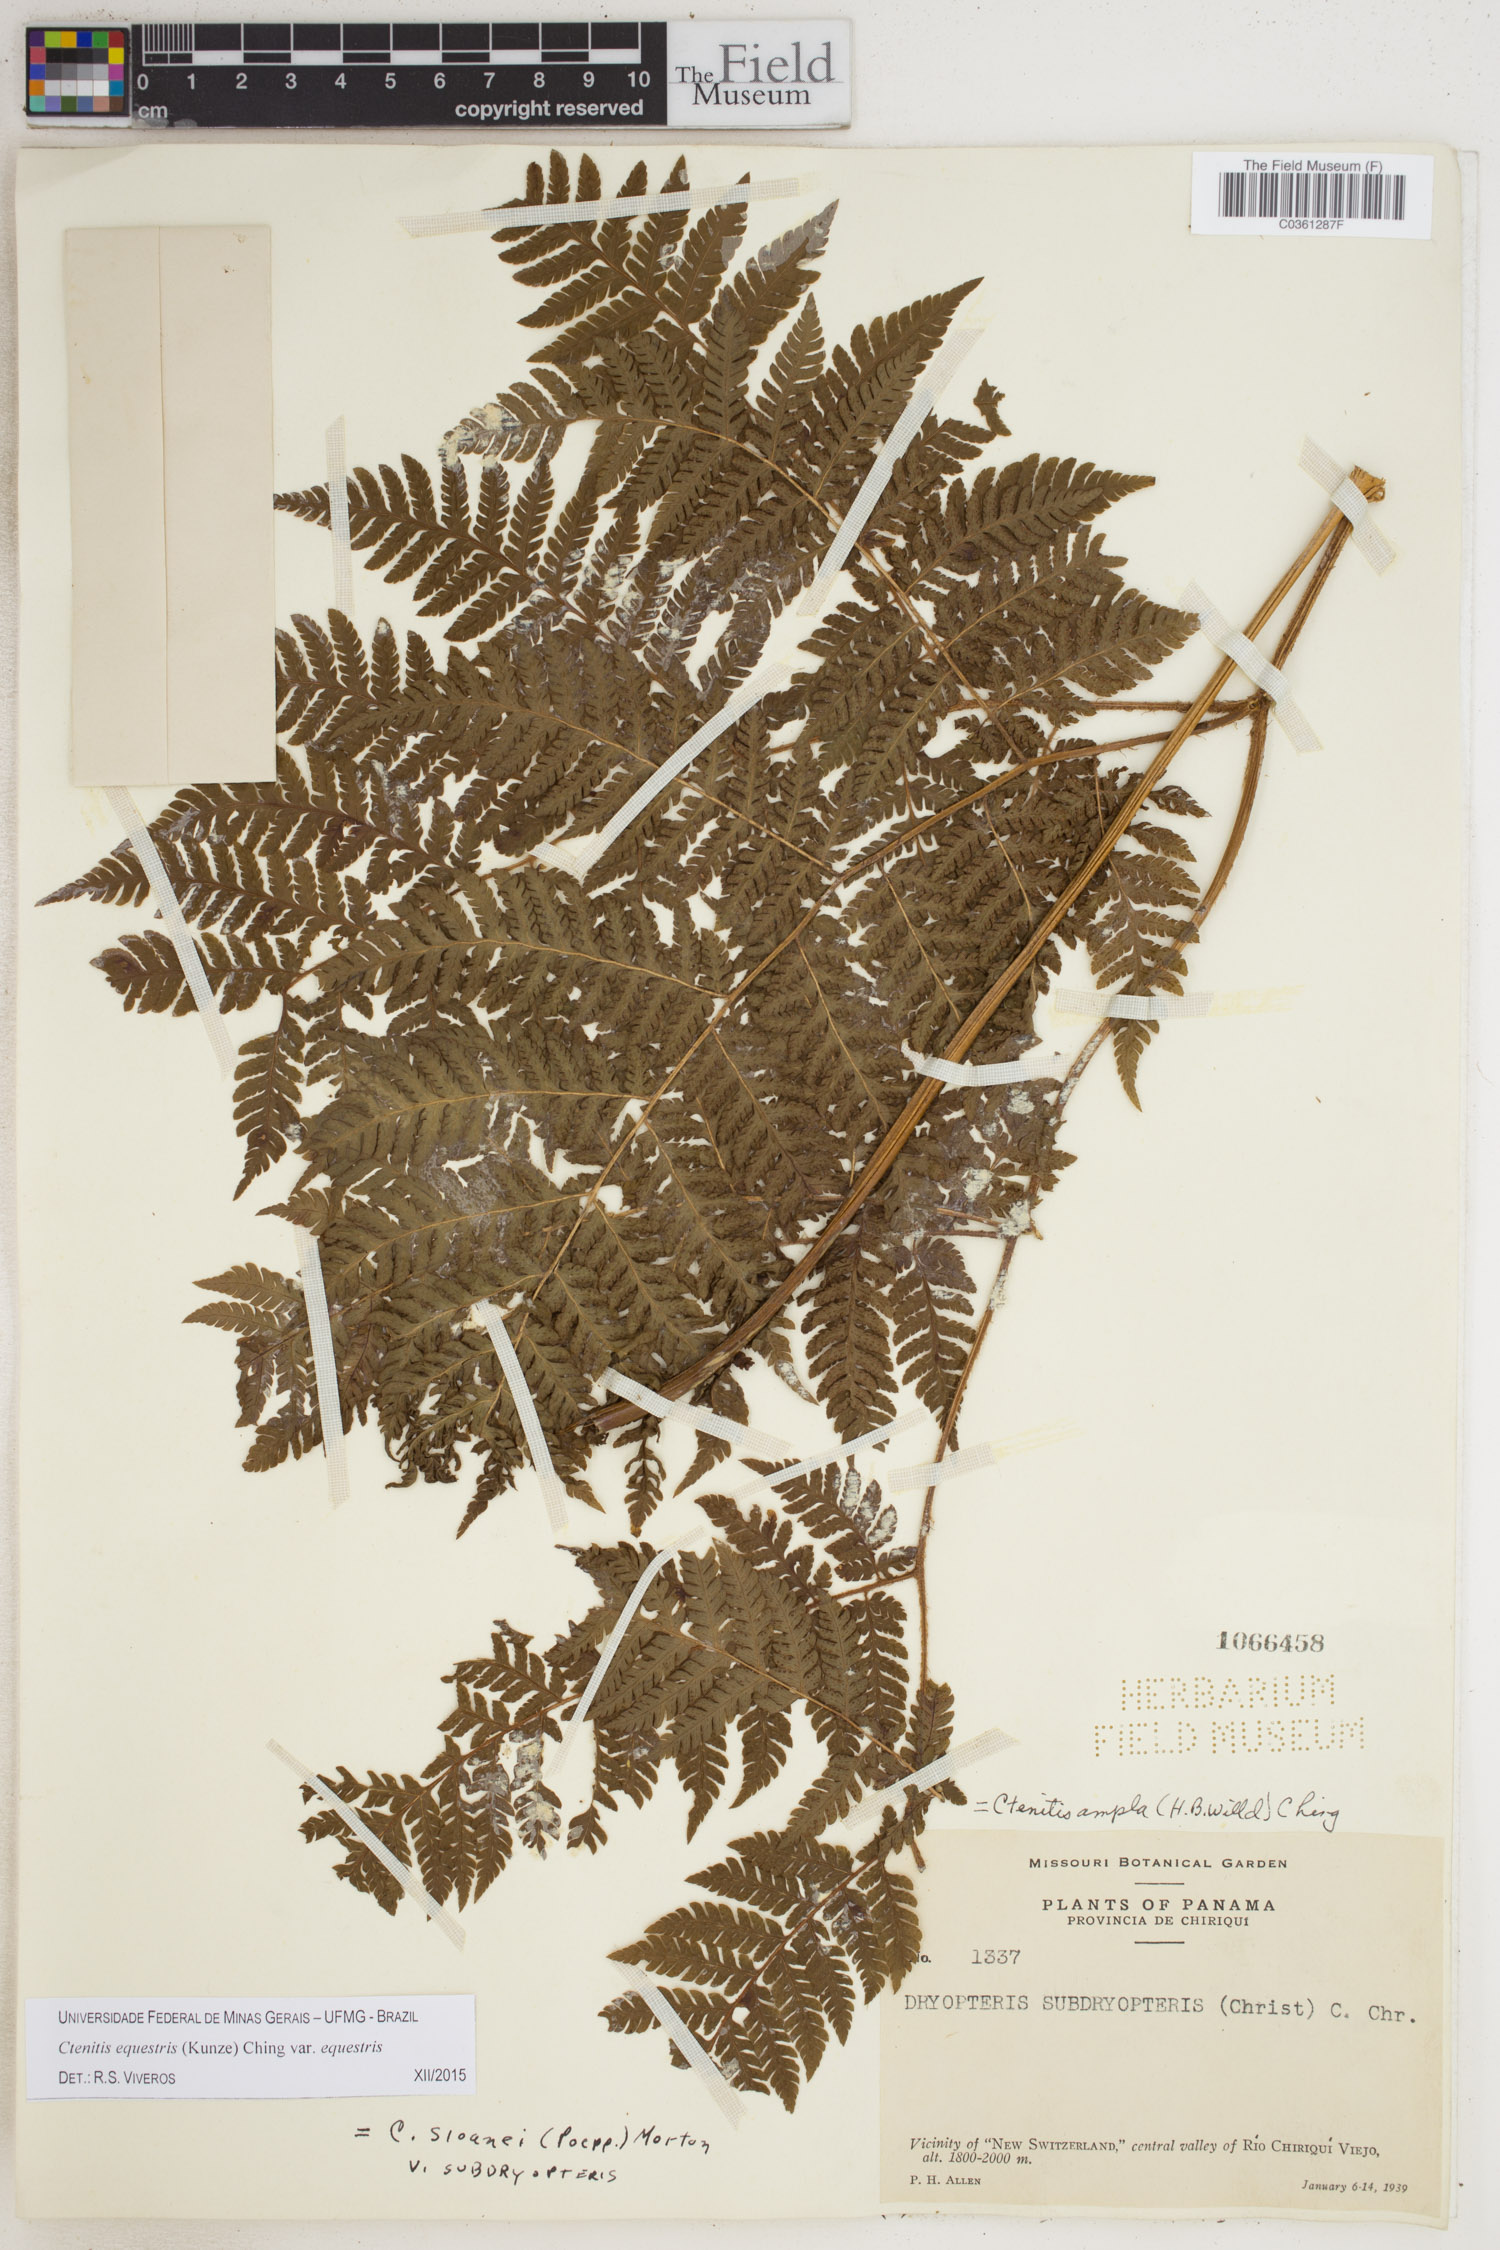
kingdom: Plantae
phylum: Tracheophyta
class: Polypodiopsida
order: Polypodiales
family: Dryopteridaceae
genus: Ctenitis
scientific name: Ctenitis equestris
